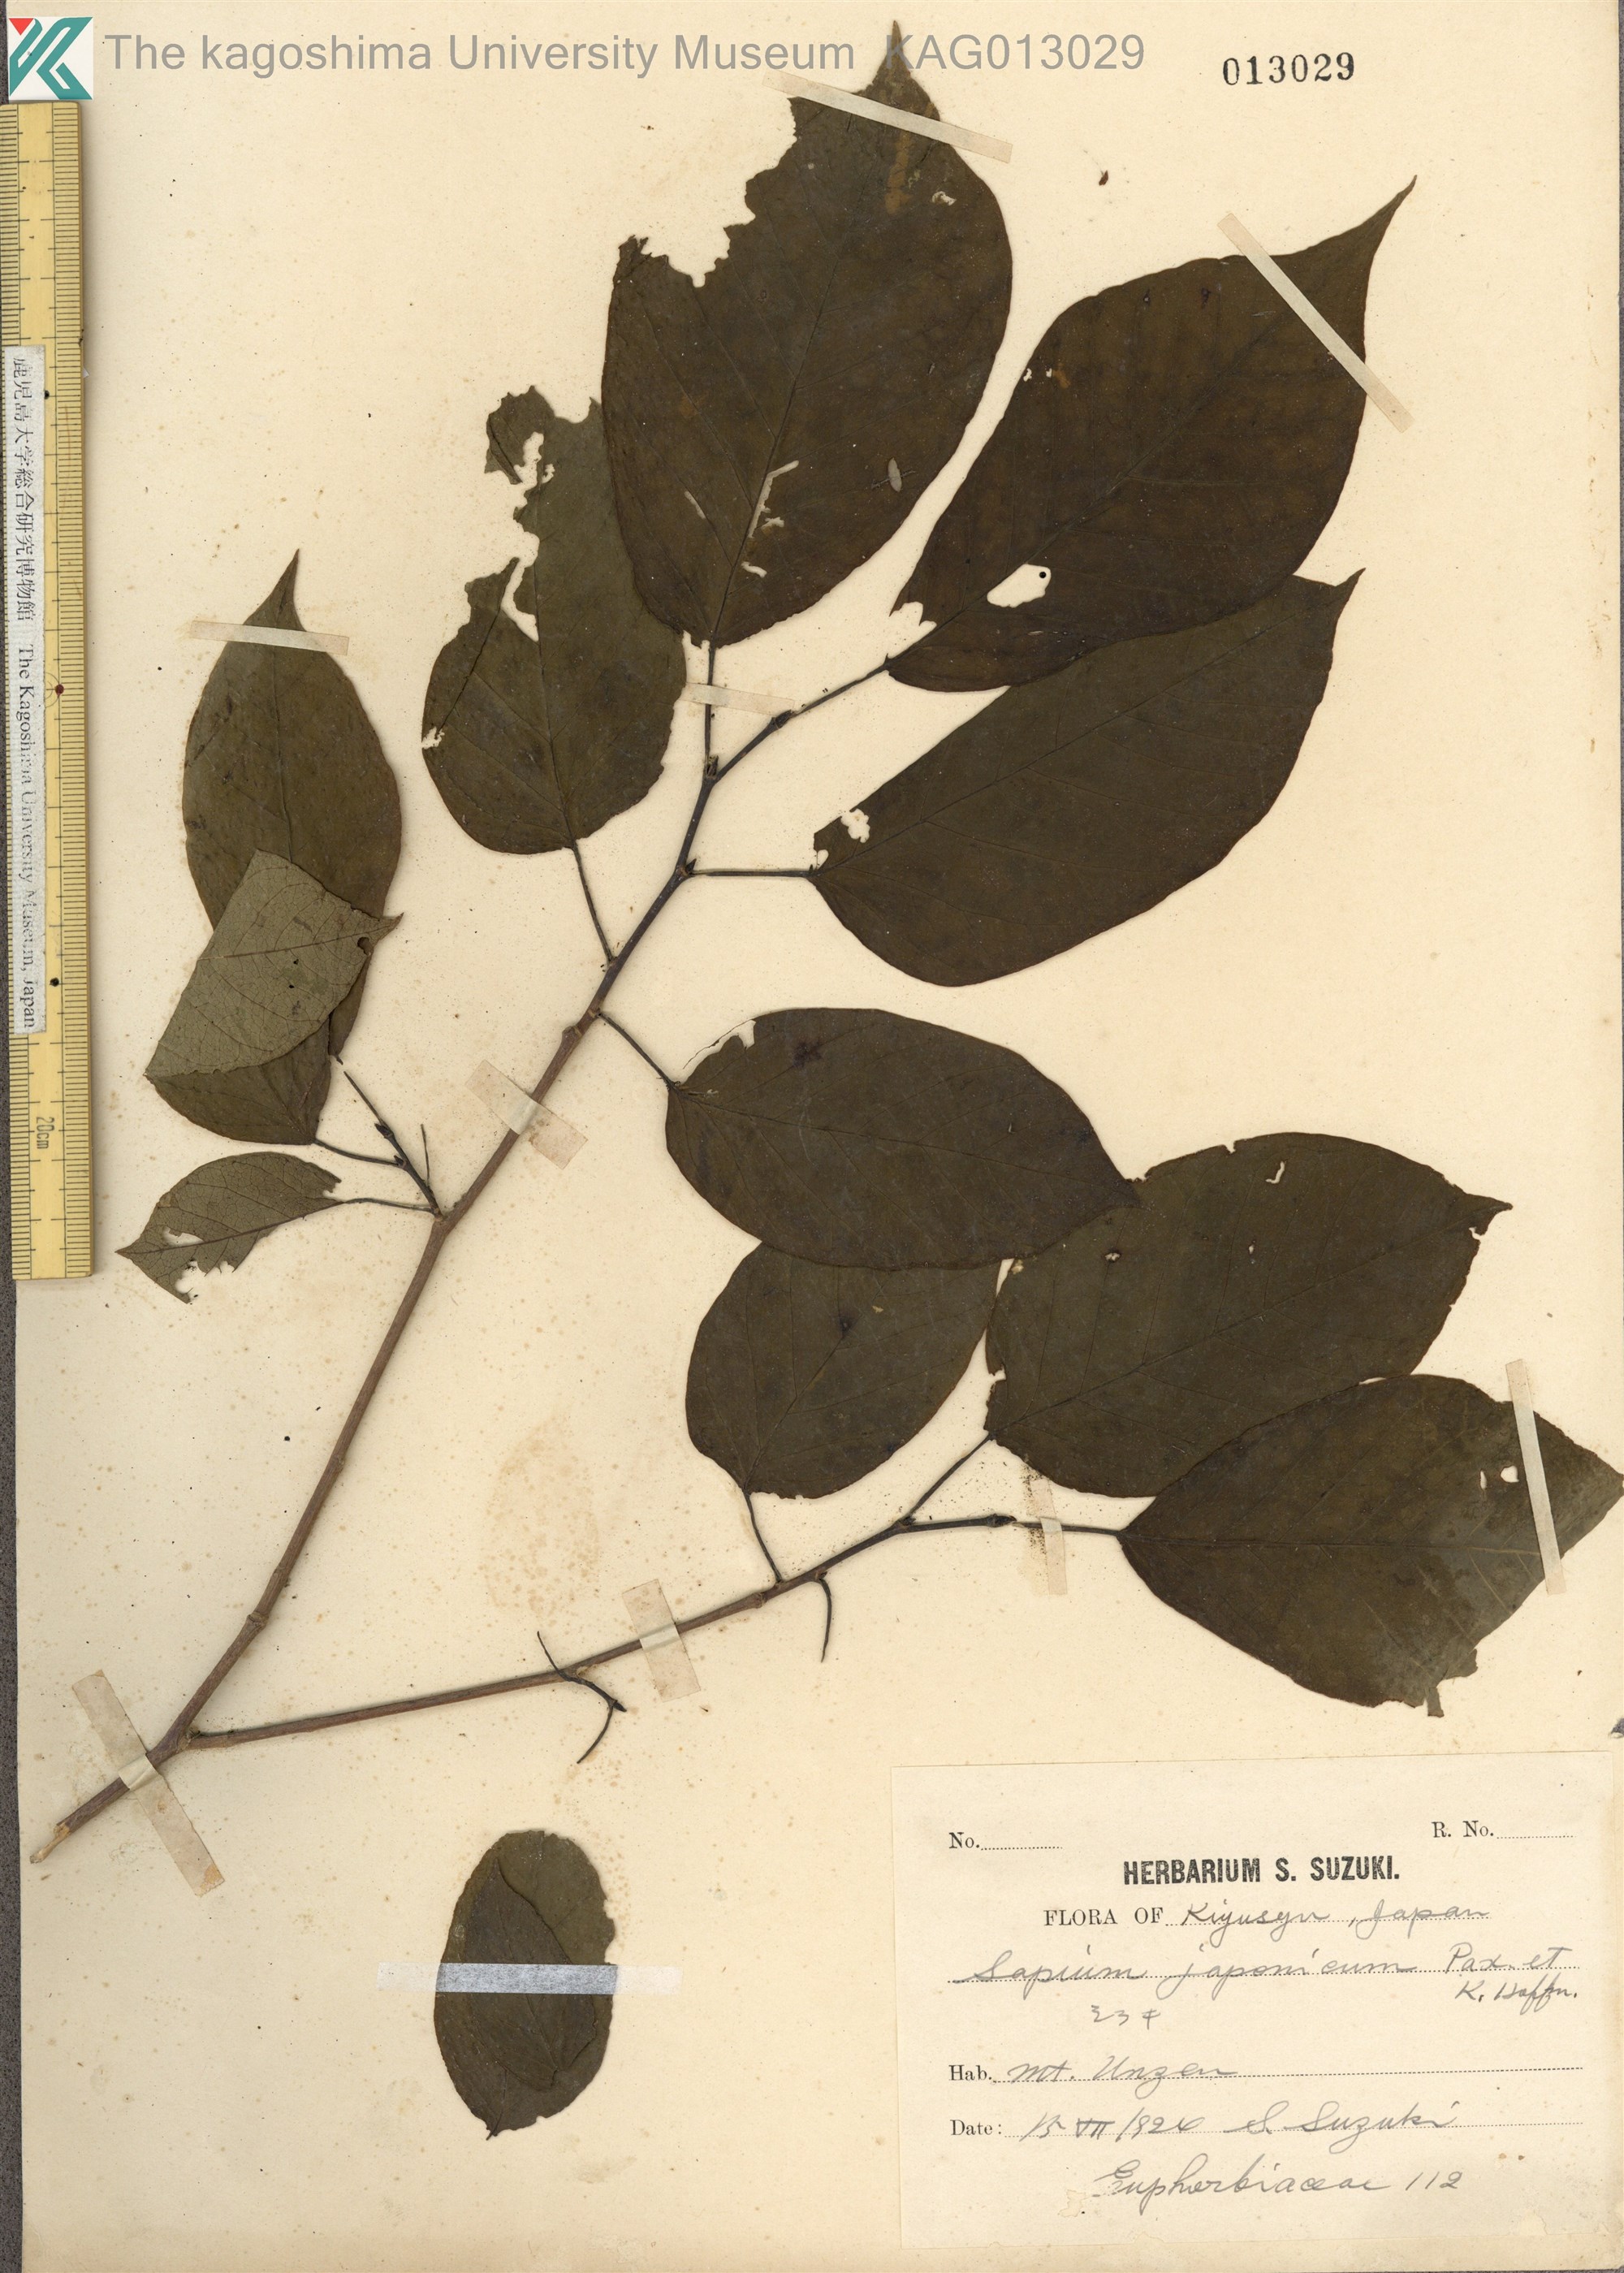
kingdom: Plantae
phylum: Tracheophyta
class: Magnoliopsida
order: Malpighiales
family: Euphorbiaceae
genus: Neoshirakia
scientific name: Neoshirakia japonica
